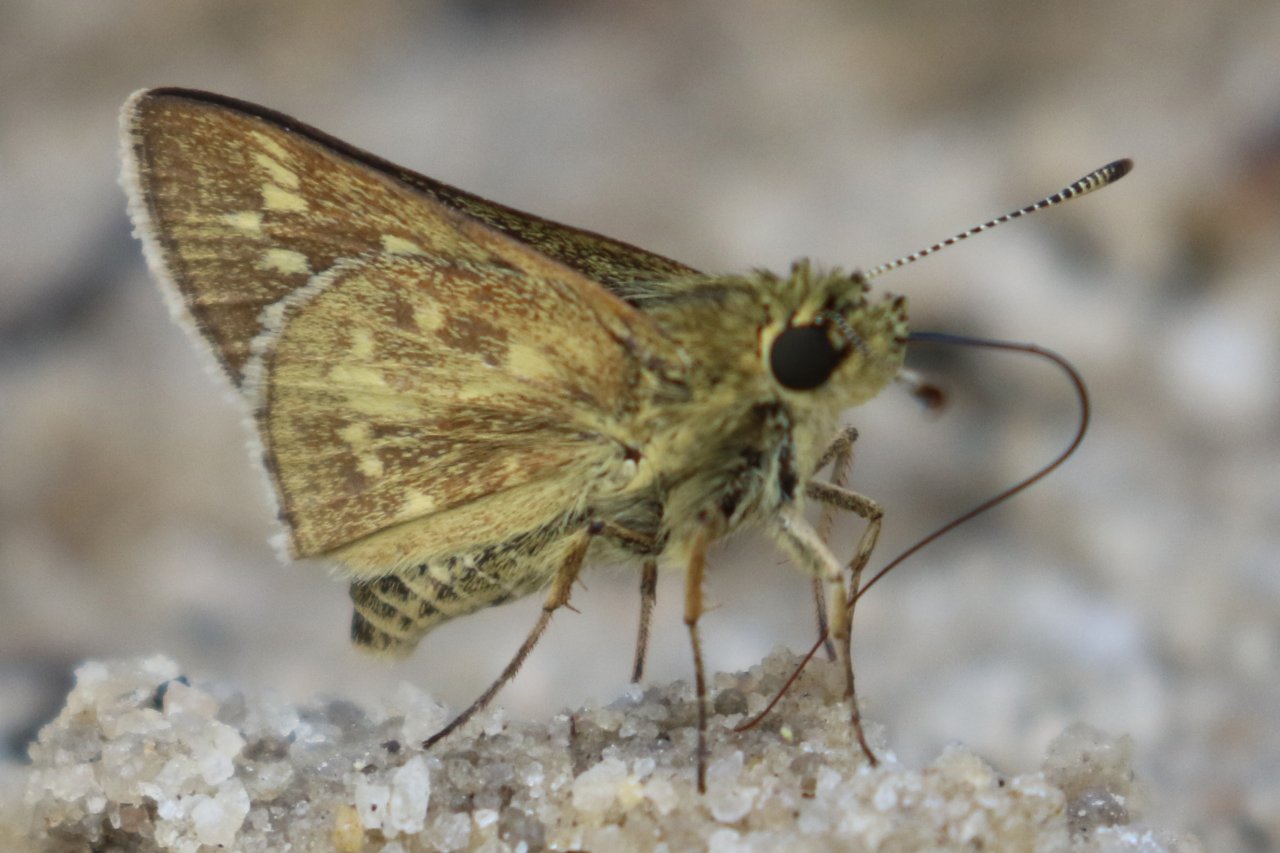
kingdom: Animalia
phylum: Arthropoda
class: Insecta
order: Lepidoptera
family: Hesperiidae
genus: Mastor
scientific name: Mastor carolina
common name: Reversed Roadside-skipper
